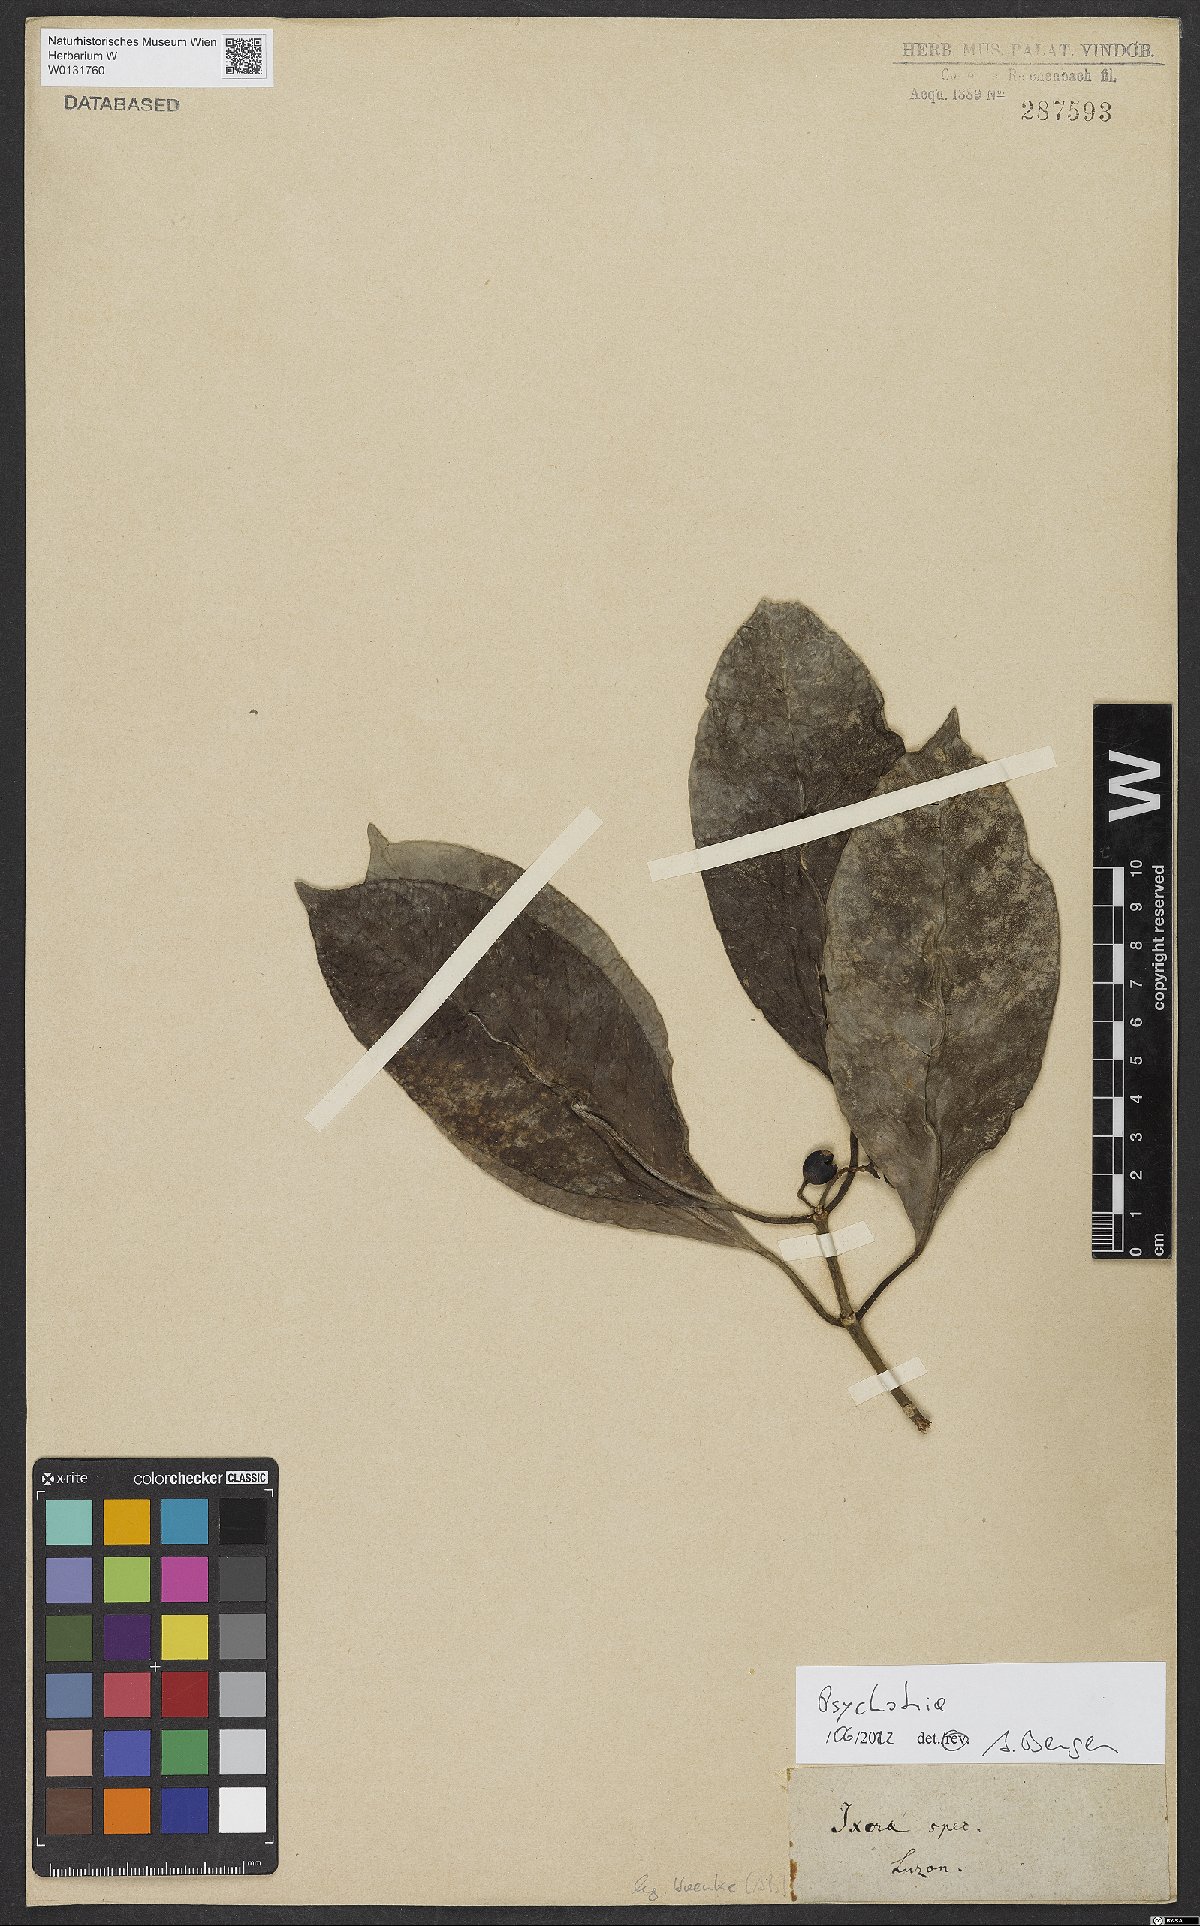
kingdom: Plantae
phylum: Tracheophyta
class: Magnoliopsida
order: Gentianales
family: Rubiaceae
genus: Psychotria
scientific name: Psychotria
